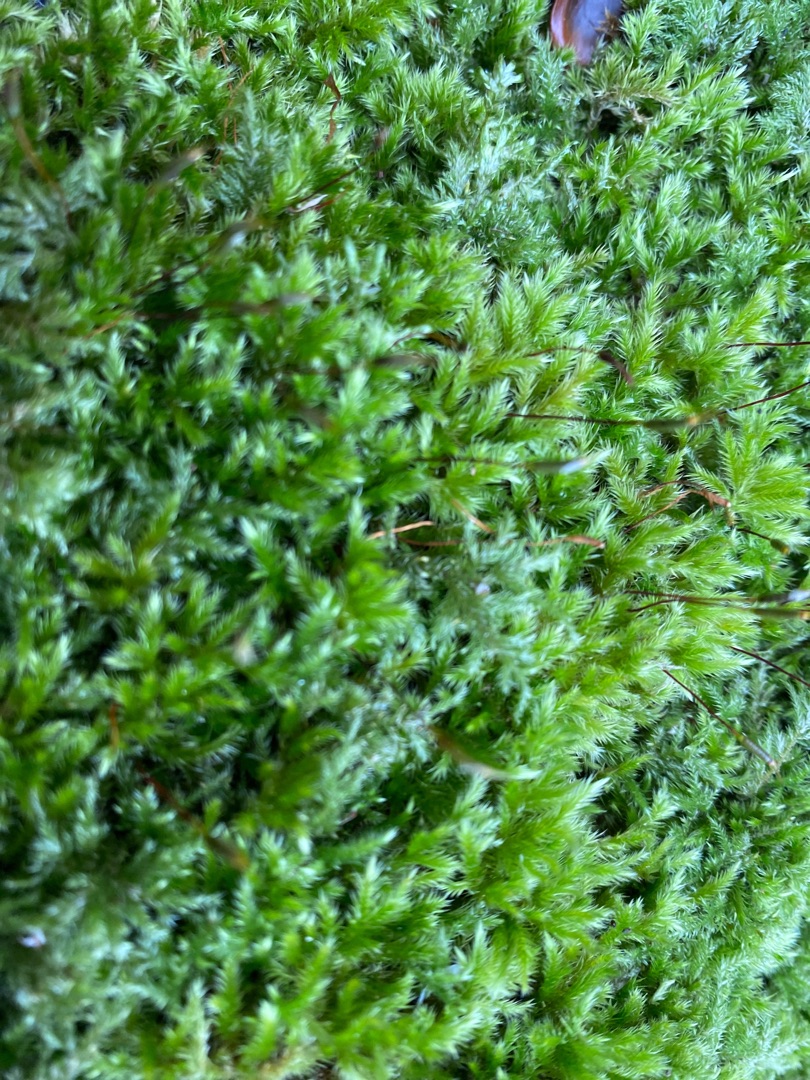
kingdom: Plantae
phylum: Bryophyta
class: Bryopsida
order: Hypnales
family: Brachytheciaceae
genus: Homalothecium
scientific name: Homalothecium sericeum
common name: Krybende silkemos
